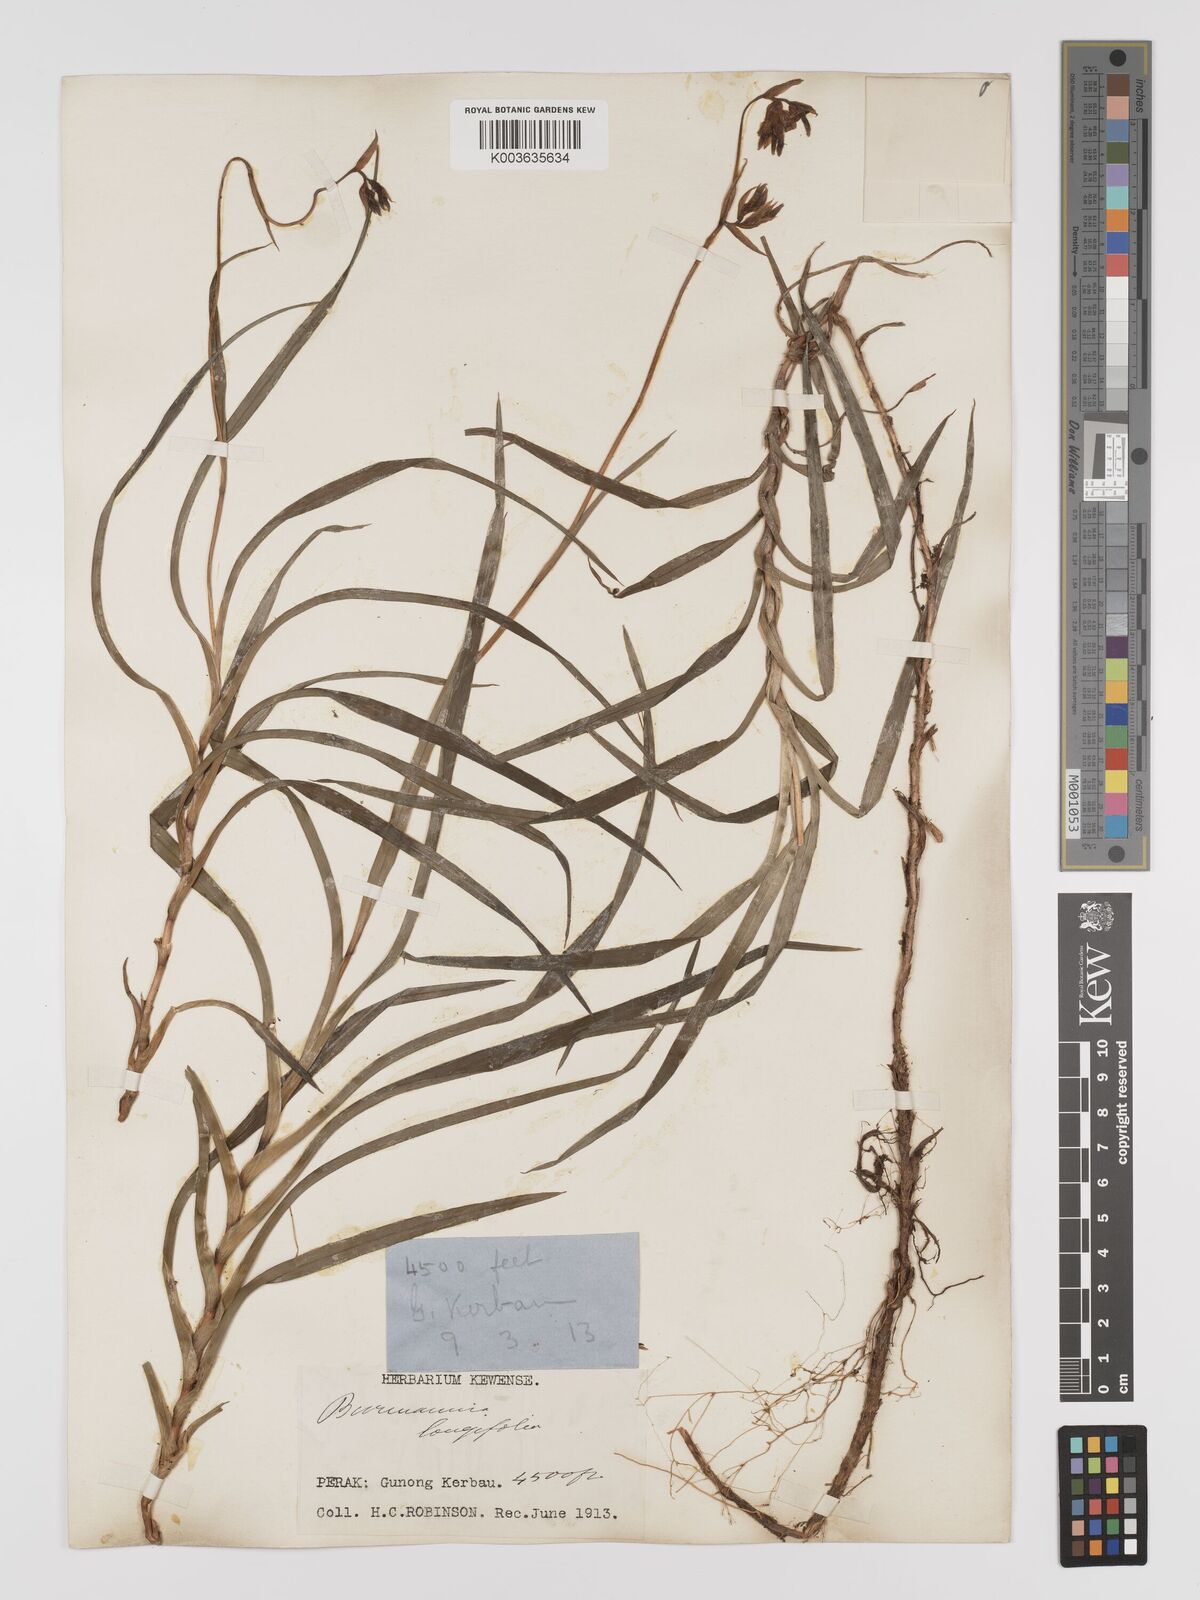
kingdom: Plantae
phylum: Tracheophyta
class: Liliopsida
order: Dioscoreales
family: Burmanniaceae
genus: Burmannia
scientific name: Burmannia longifolia
